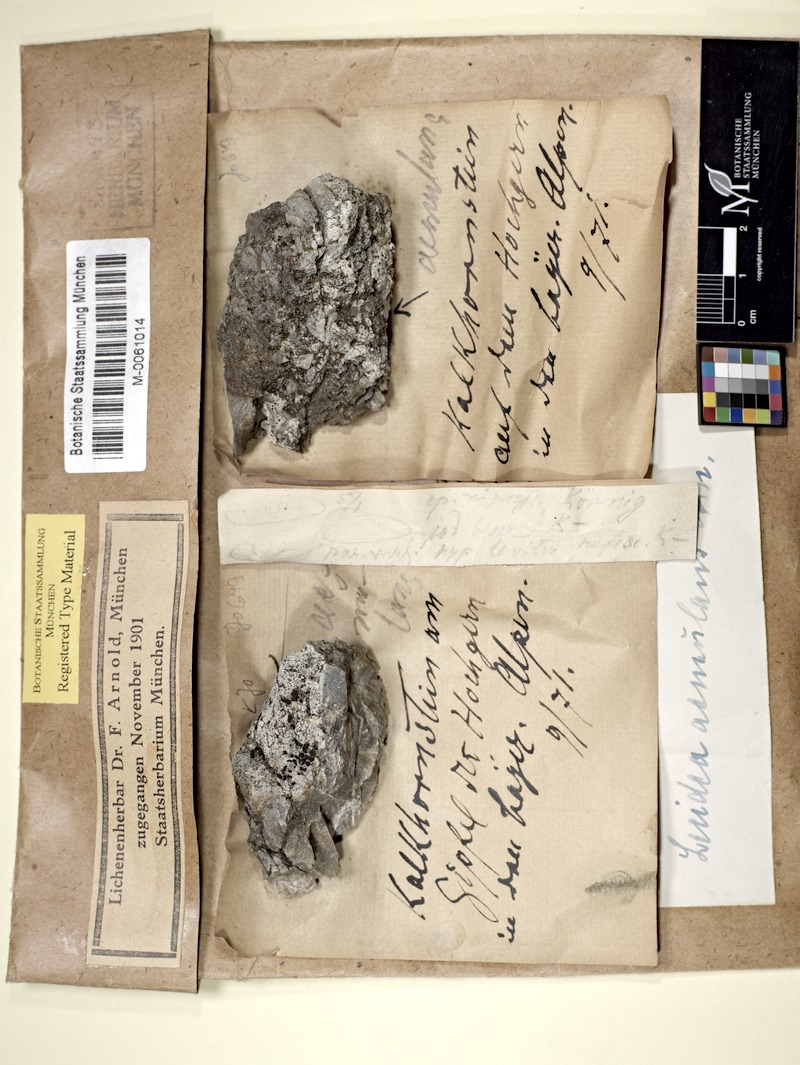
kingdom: Fungi
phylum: Ascomycota
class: Lecanoromycetes
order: Lecanorales
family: Lecanoraceae
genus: Lecidella
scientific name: Lecidella aemulans
